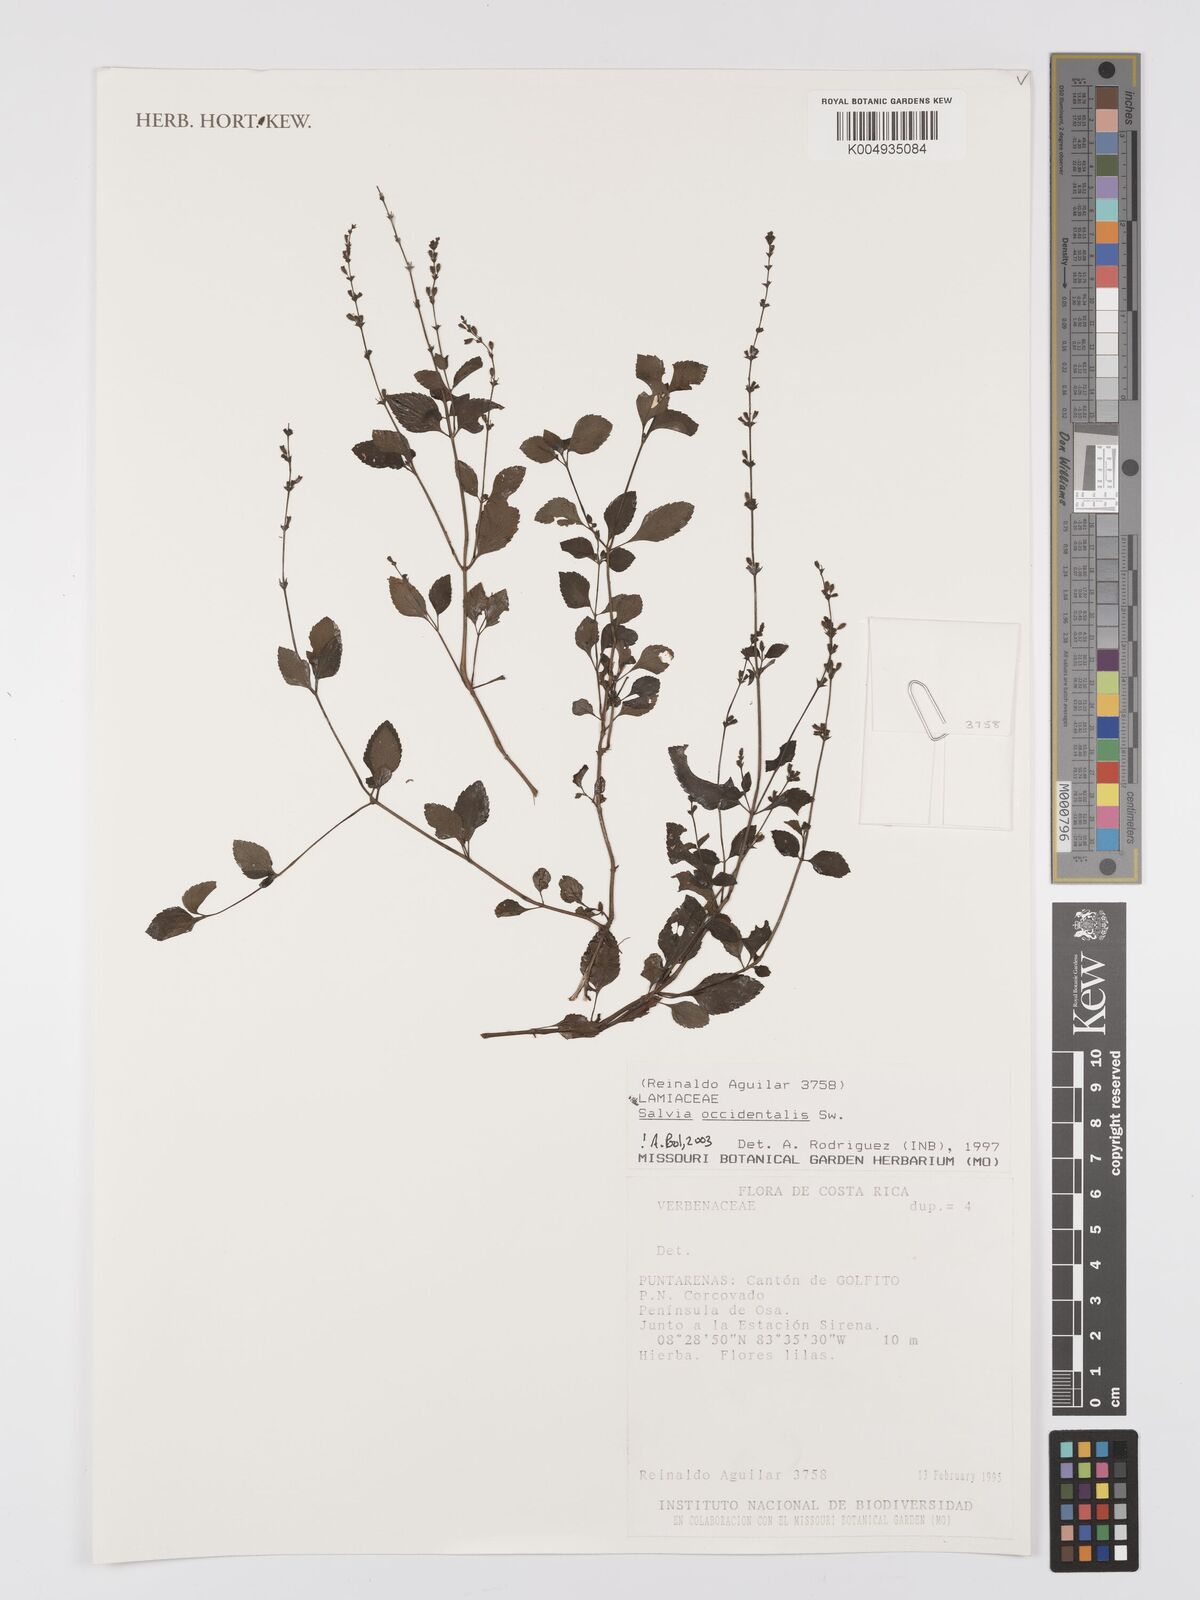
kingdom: Plantae
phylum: Tracheophyta
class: Magnoliopsida
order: Lamiales
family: Lamiaceae
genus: Salvia
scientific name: Salvia occidentalis
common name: West indian sage
